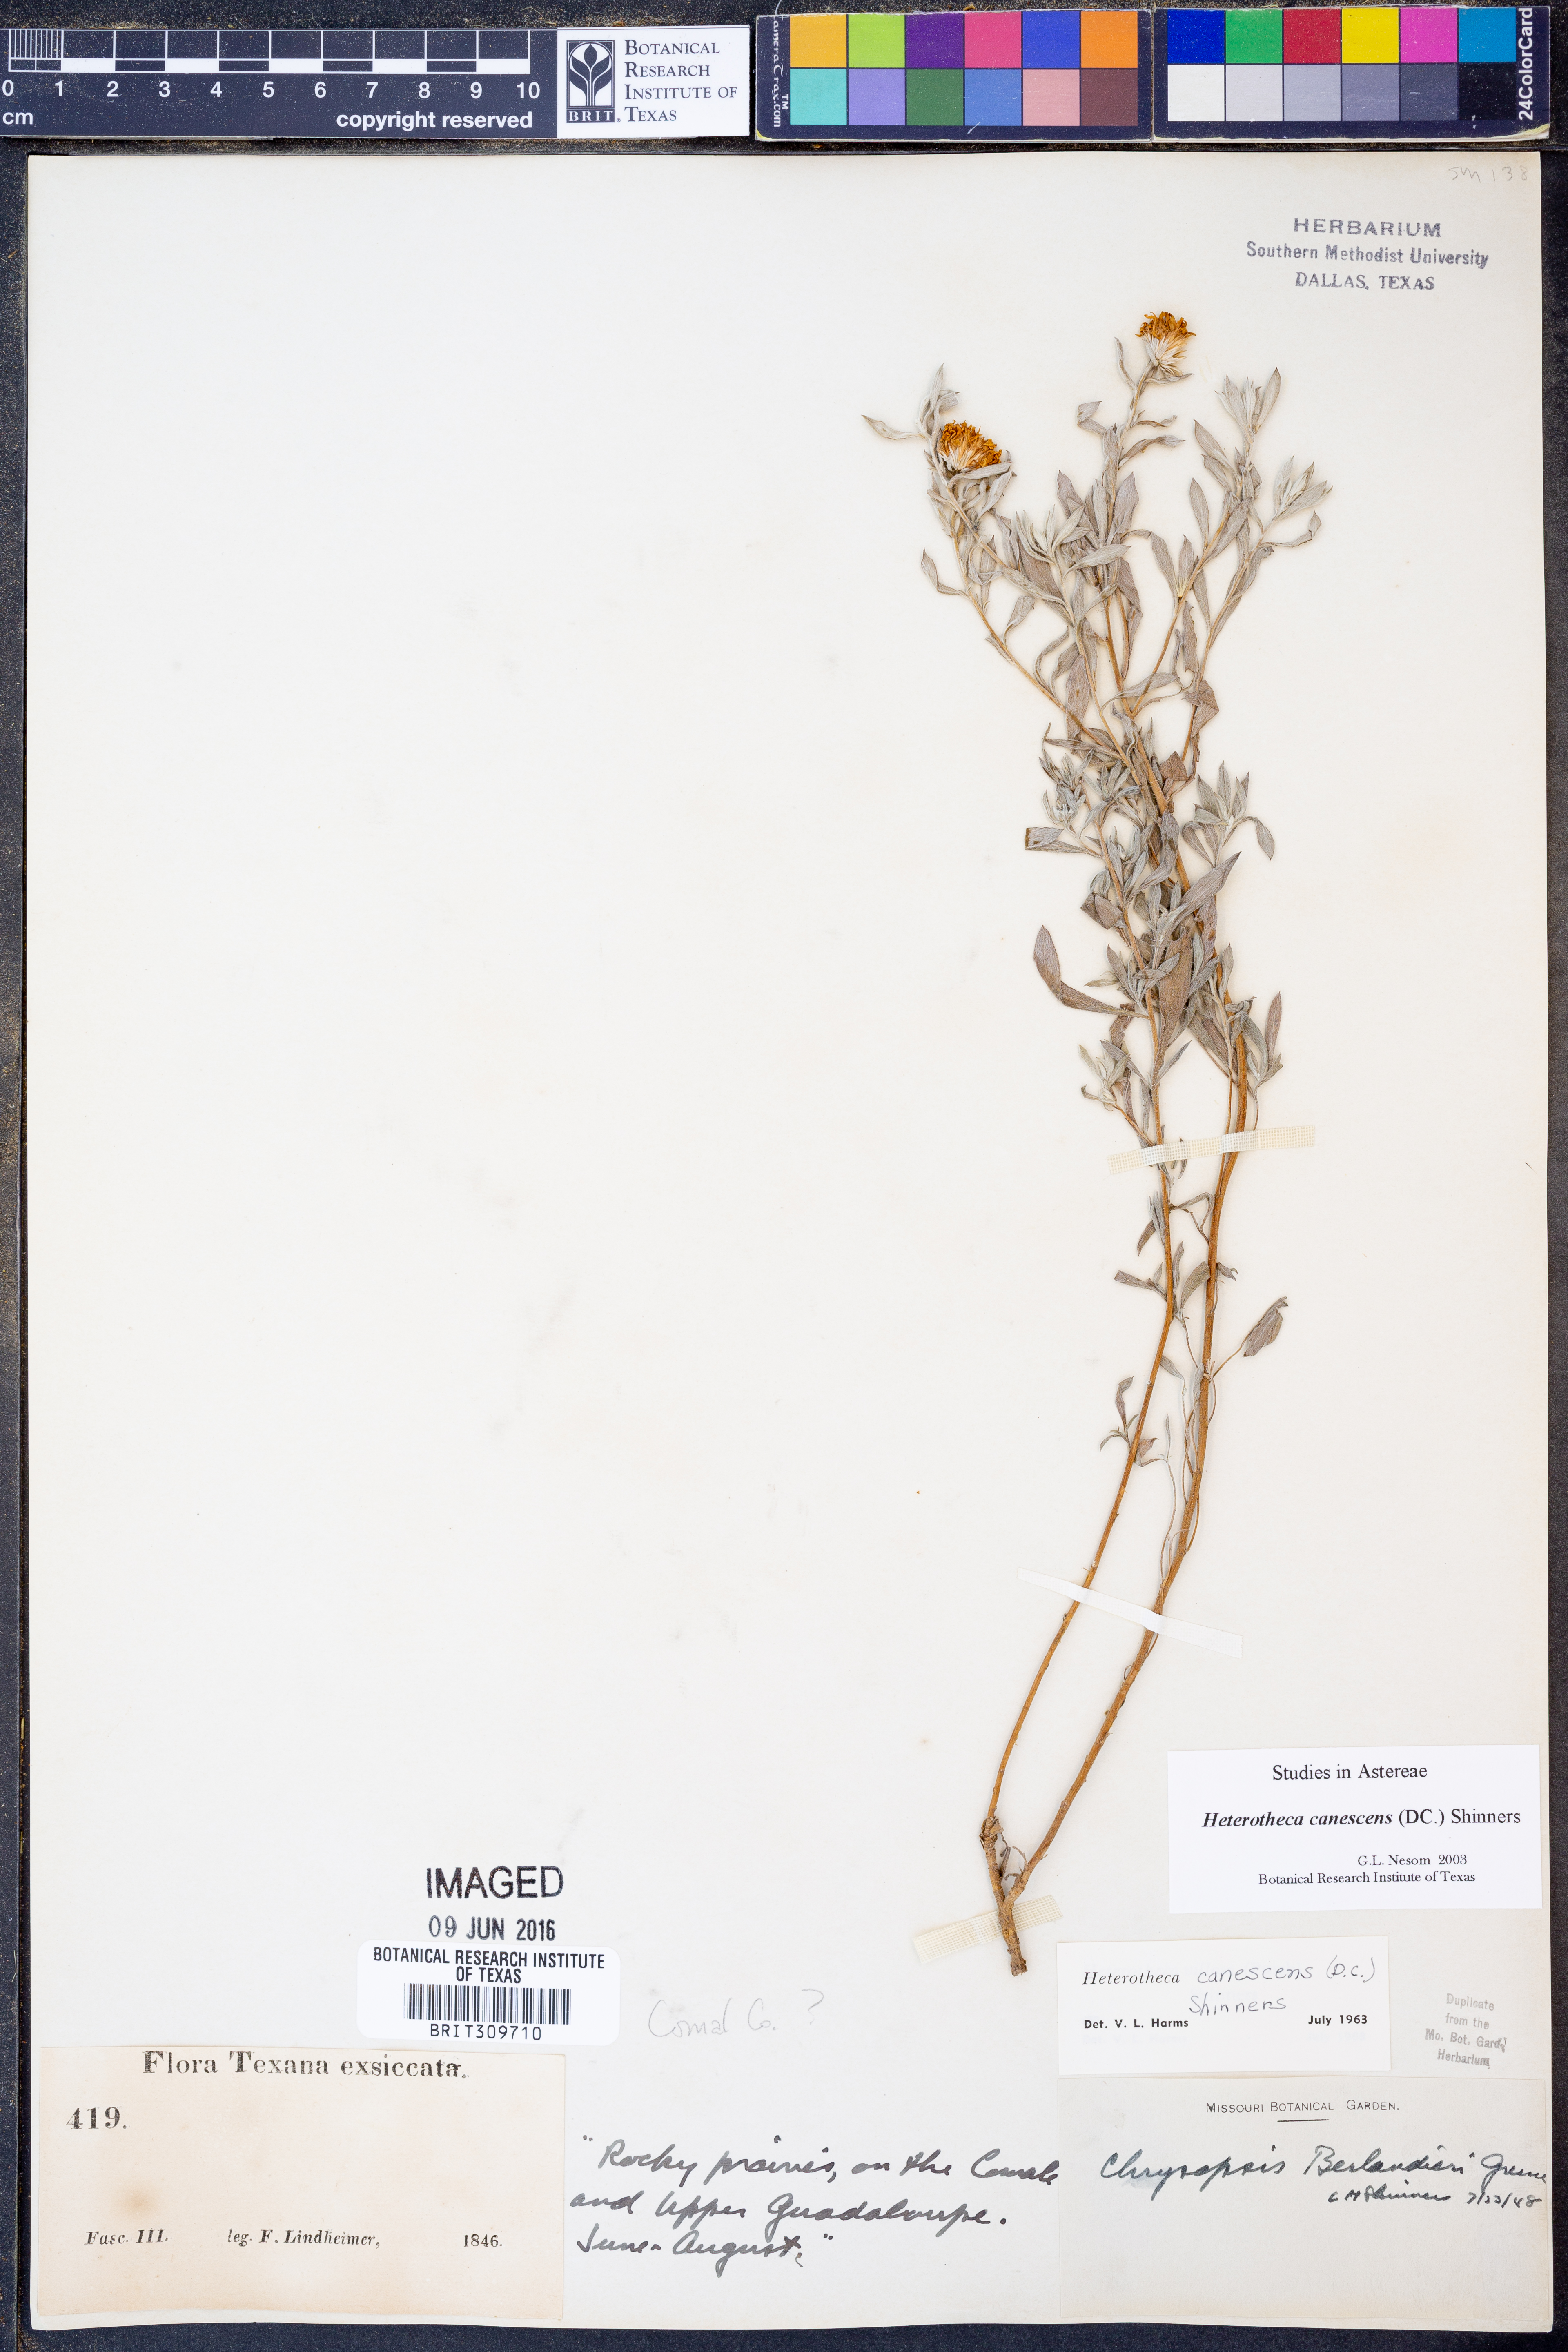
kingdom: Plantae
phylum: Tracheophyta
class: Magnoliopsida
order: Asterales
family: Asteraceae
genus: Heterotheca
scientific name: Heterotheca canescens
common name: Hoary golden-aster
